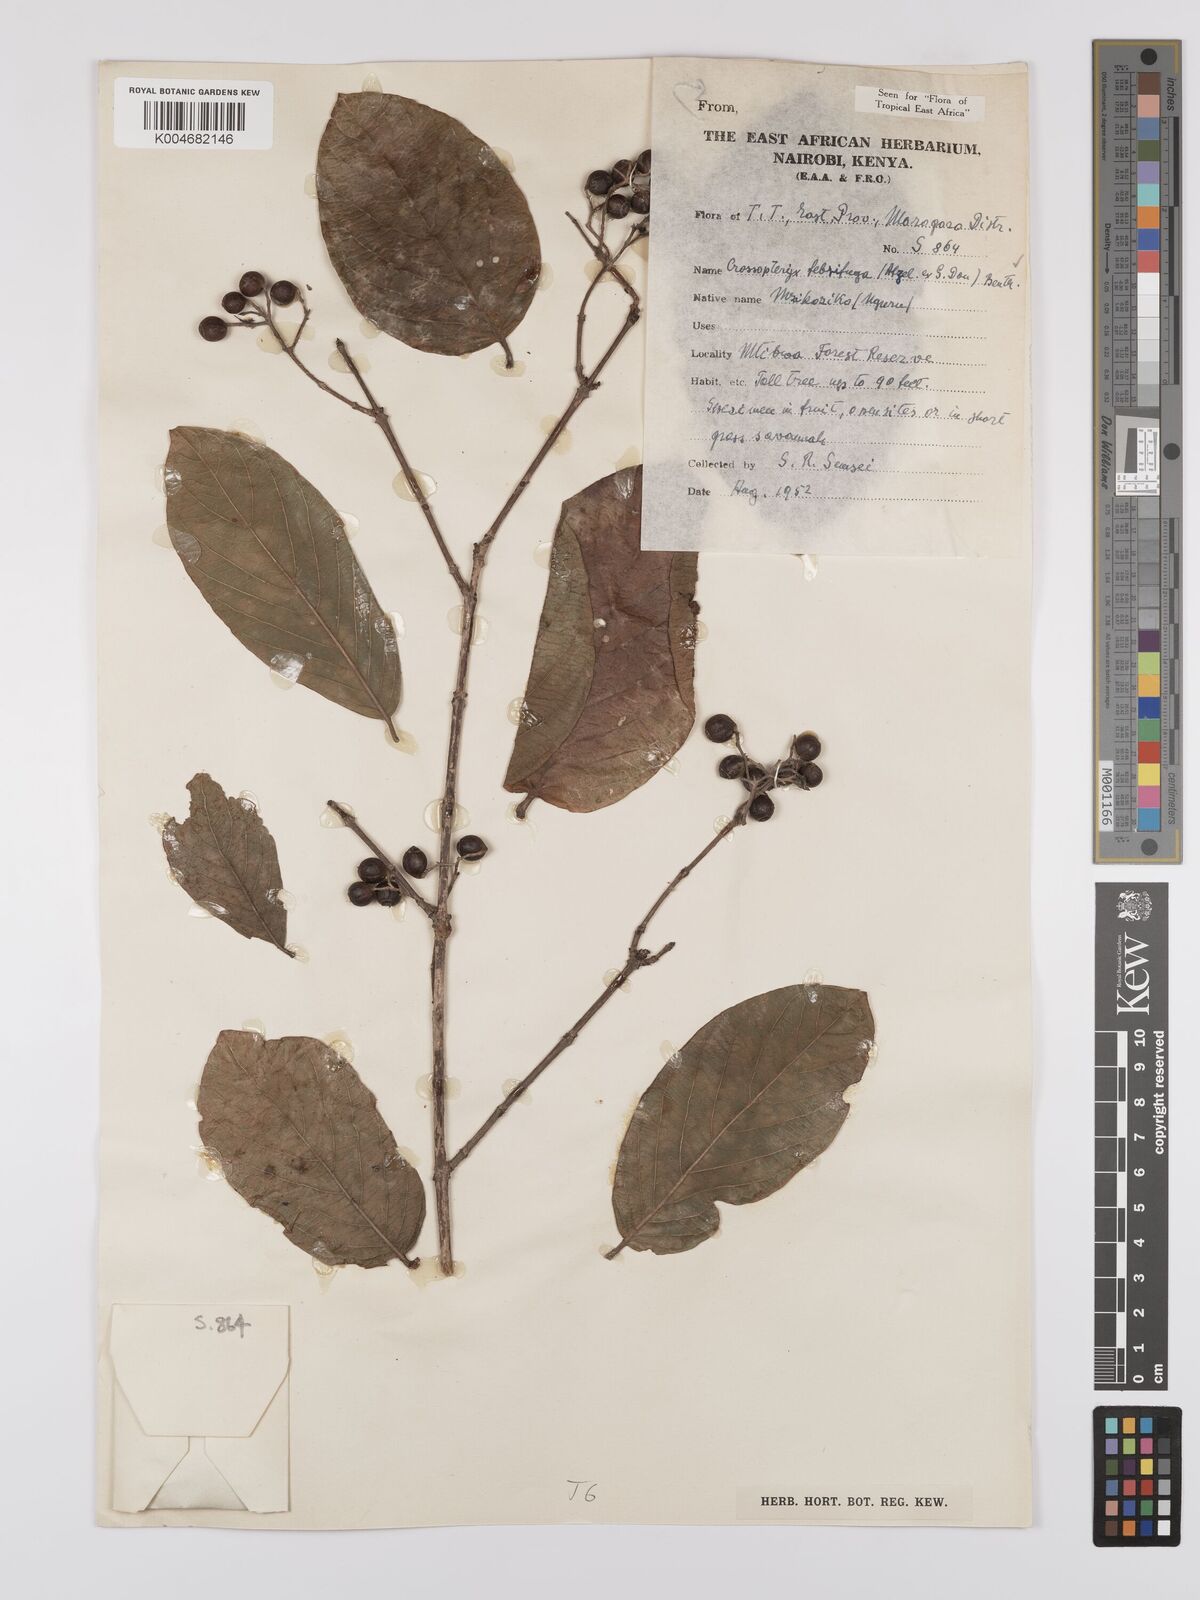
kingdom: Plantae
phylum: Tracheophyta
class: Magnoliopsida
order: Gentianales
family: Rubiaceae
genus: Crossopteryx
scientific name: Crossopteryx febrifuga
